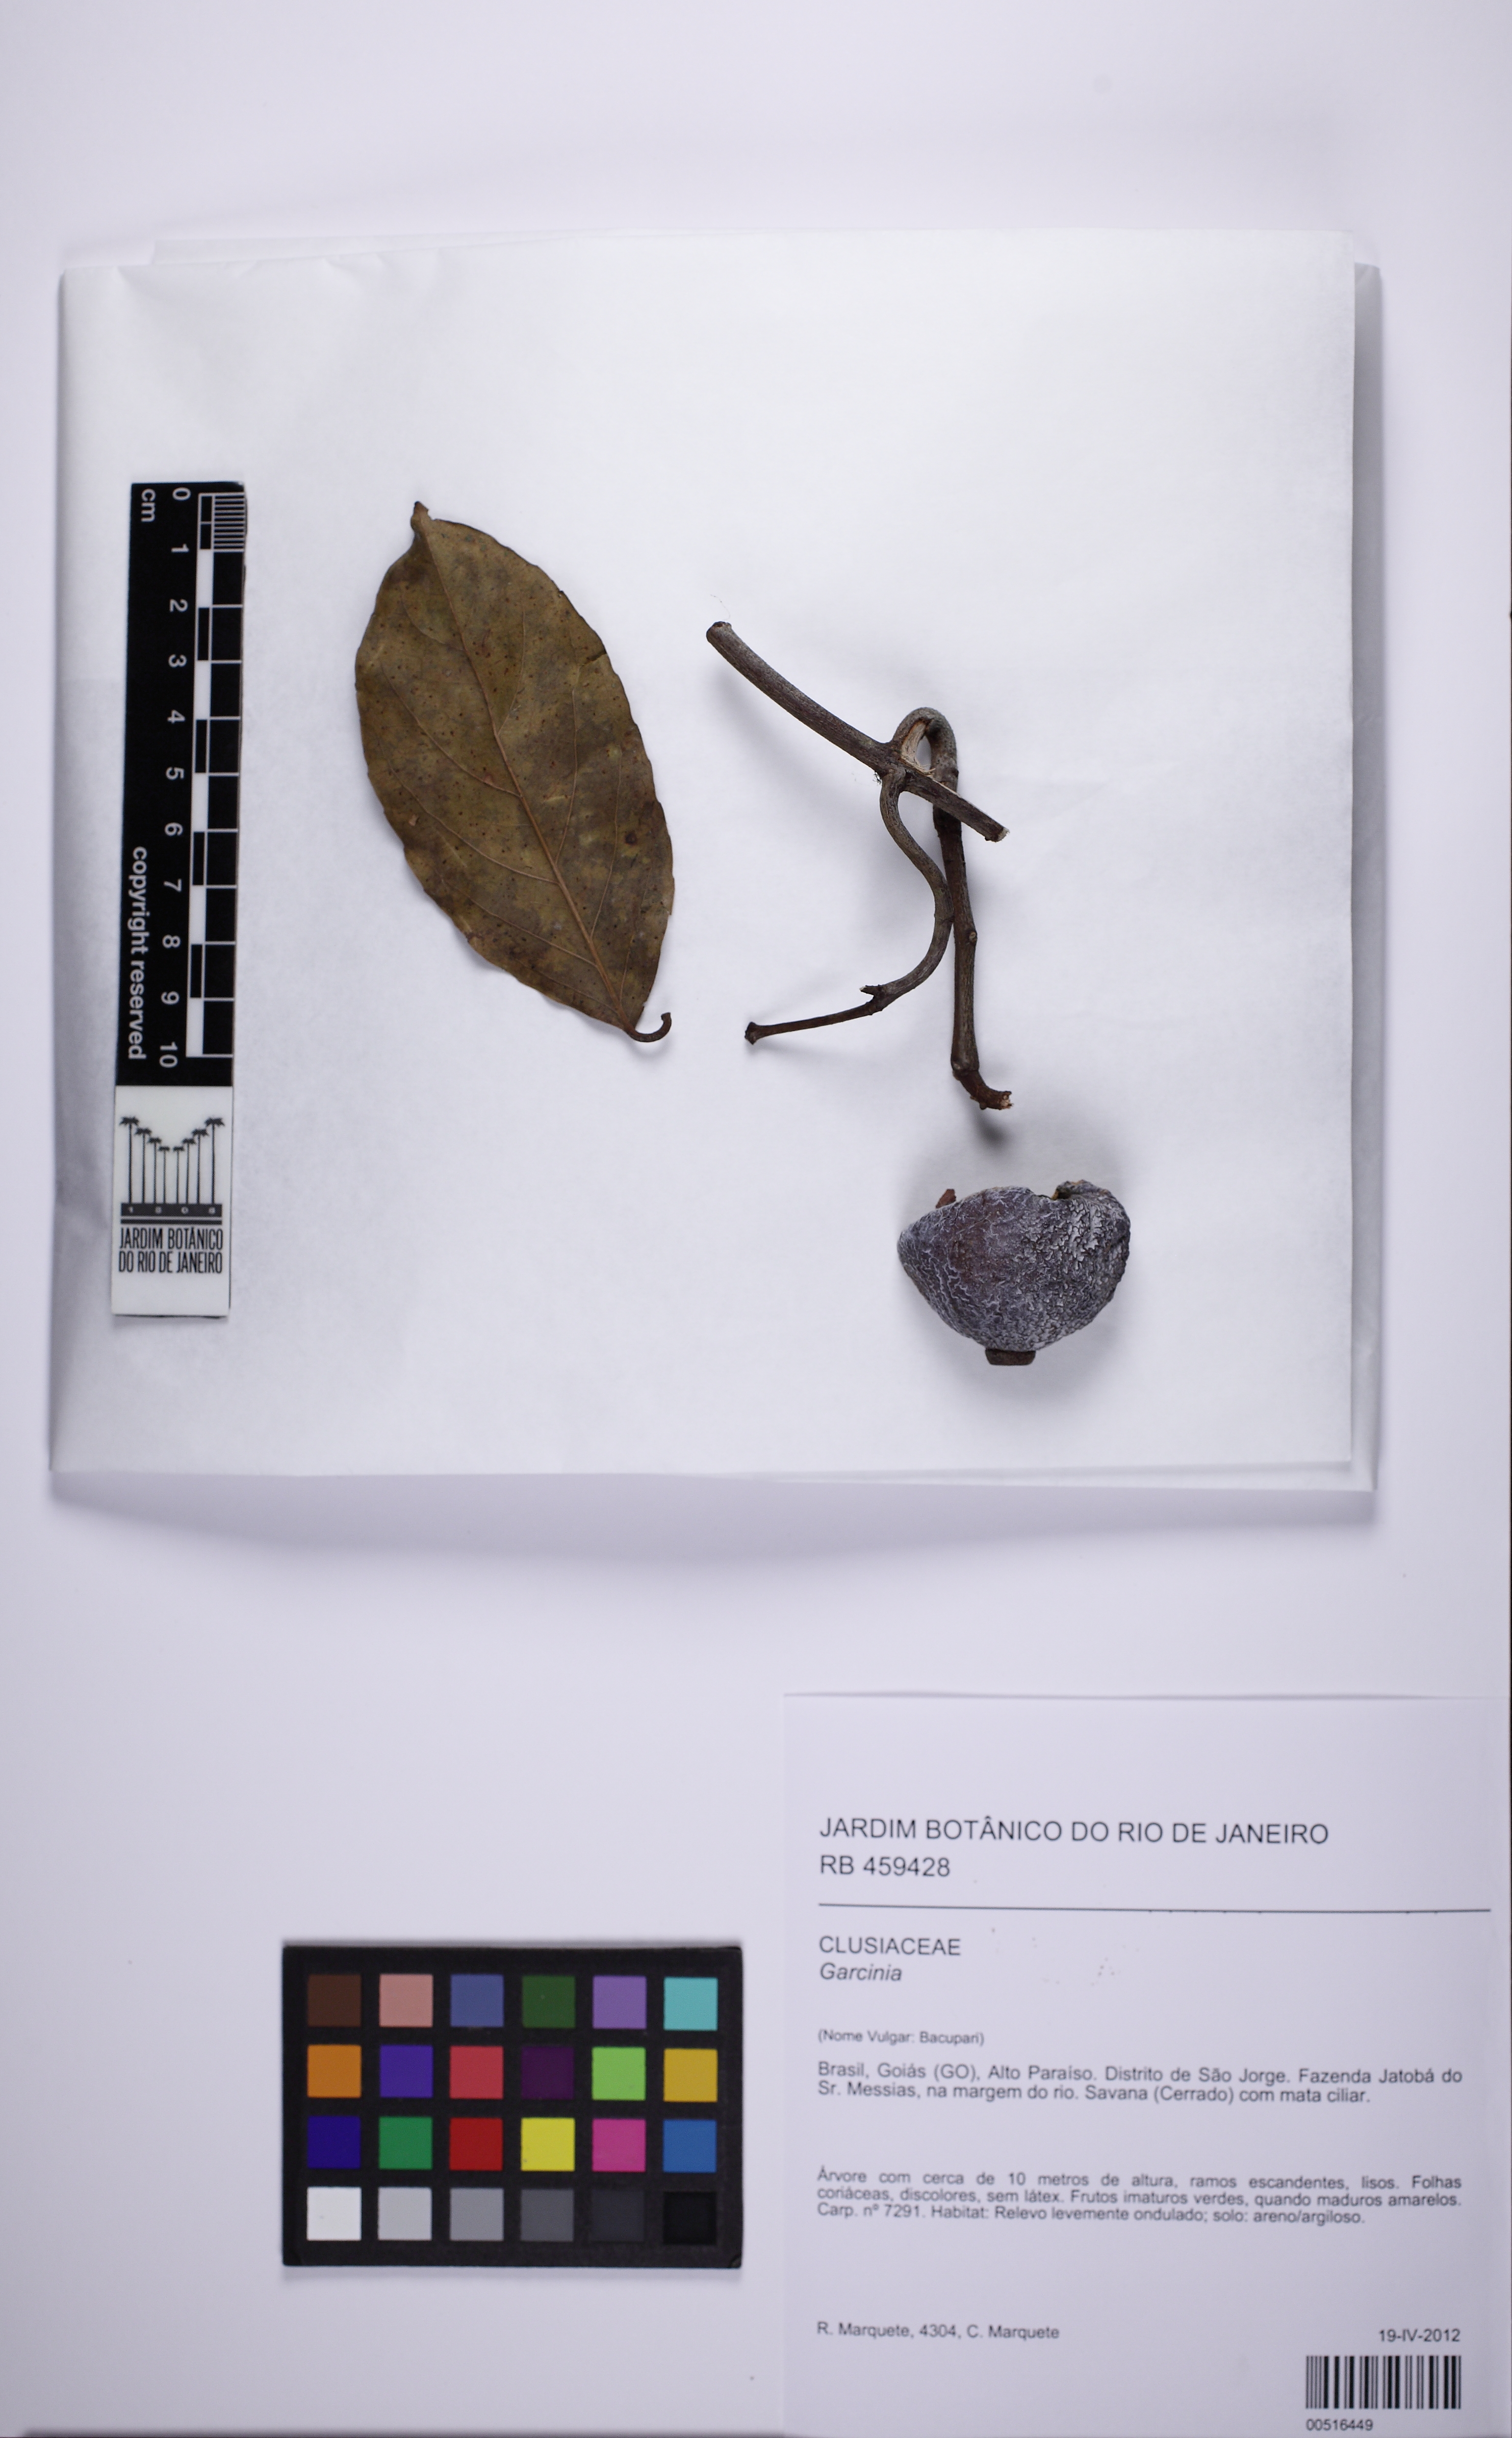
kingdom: Plantae
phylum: Tracheophyta
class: Magnoliopsida
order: Celastrales
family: Celastraceae
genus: Salacia
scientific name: Salacia
